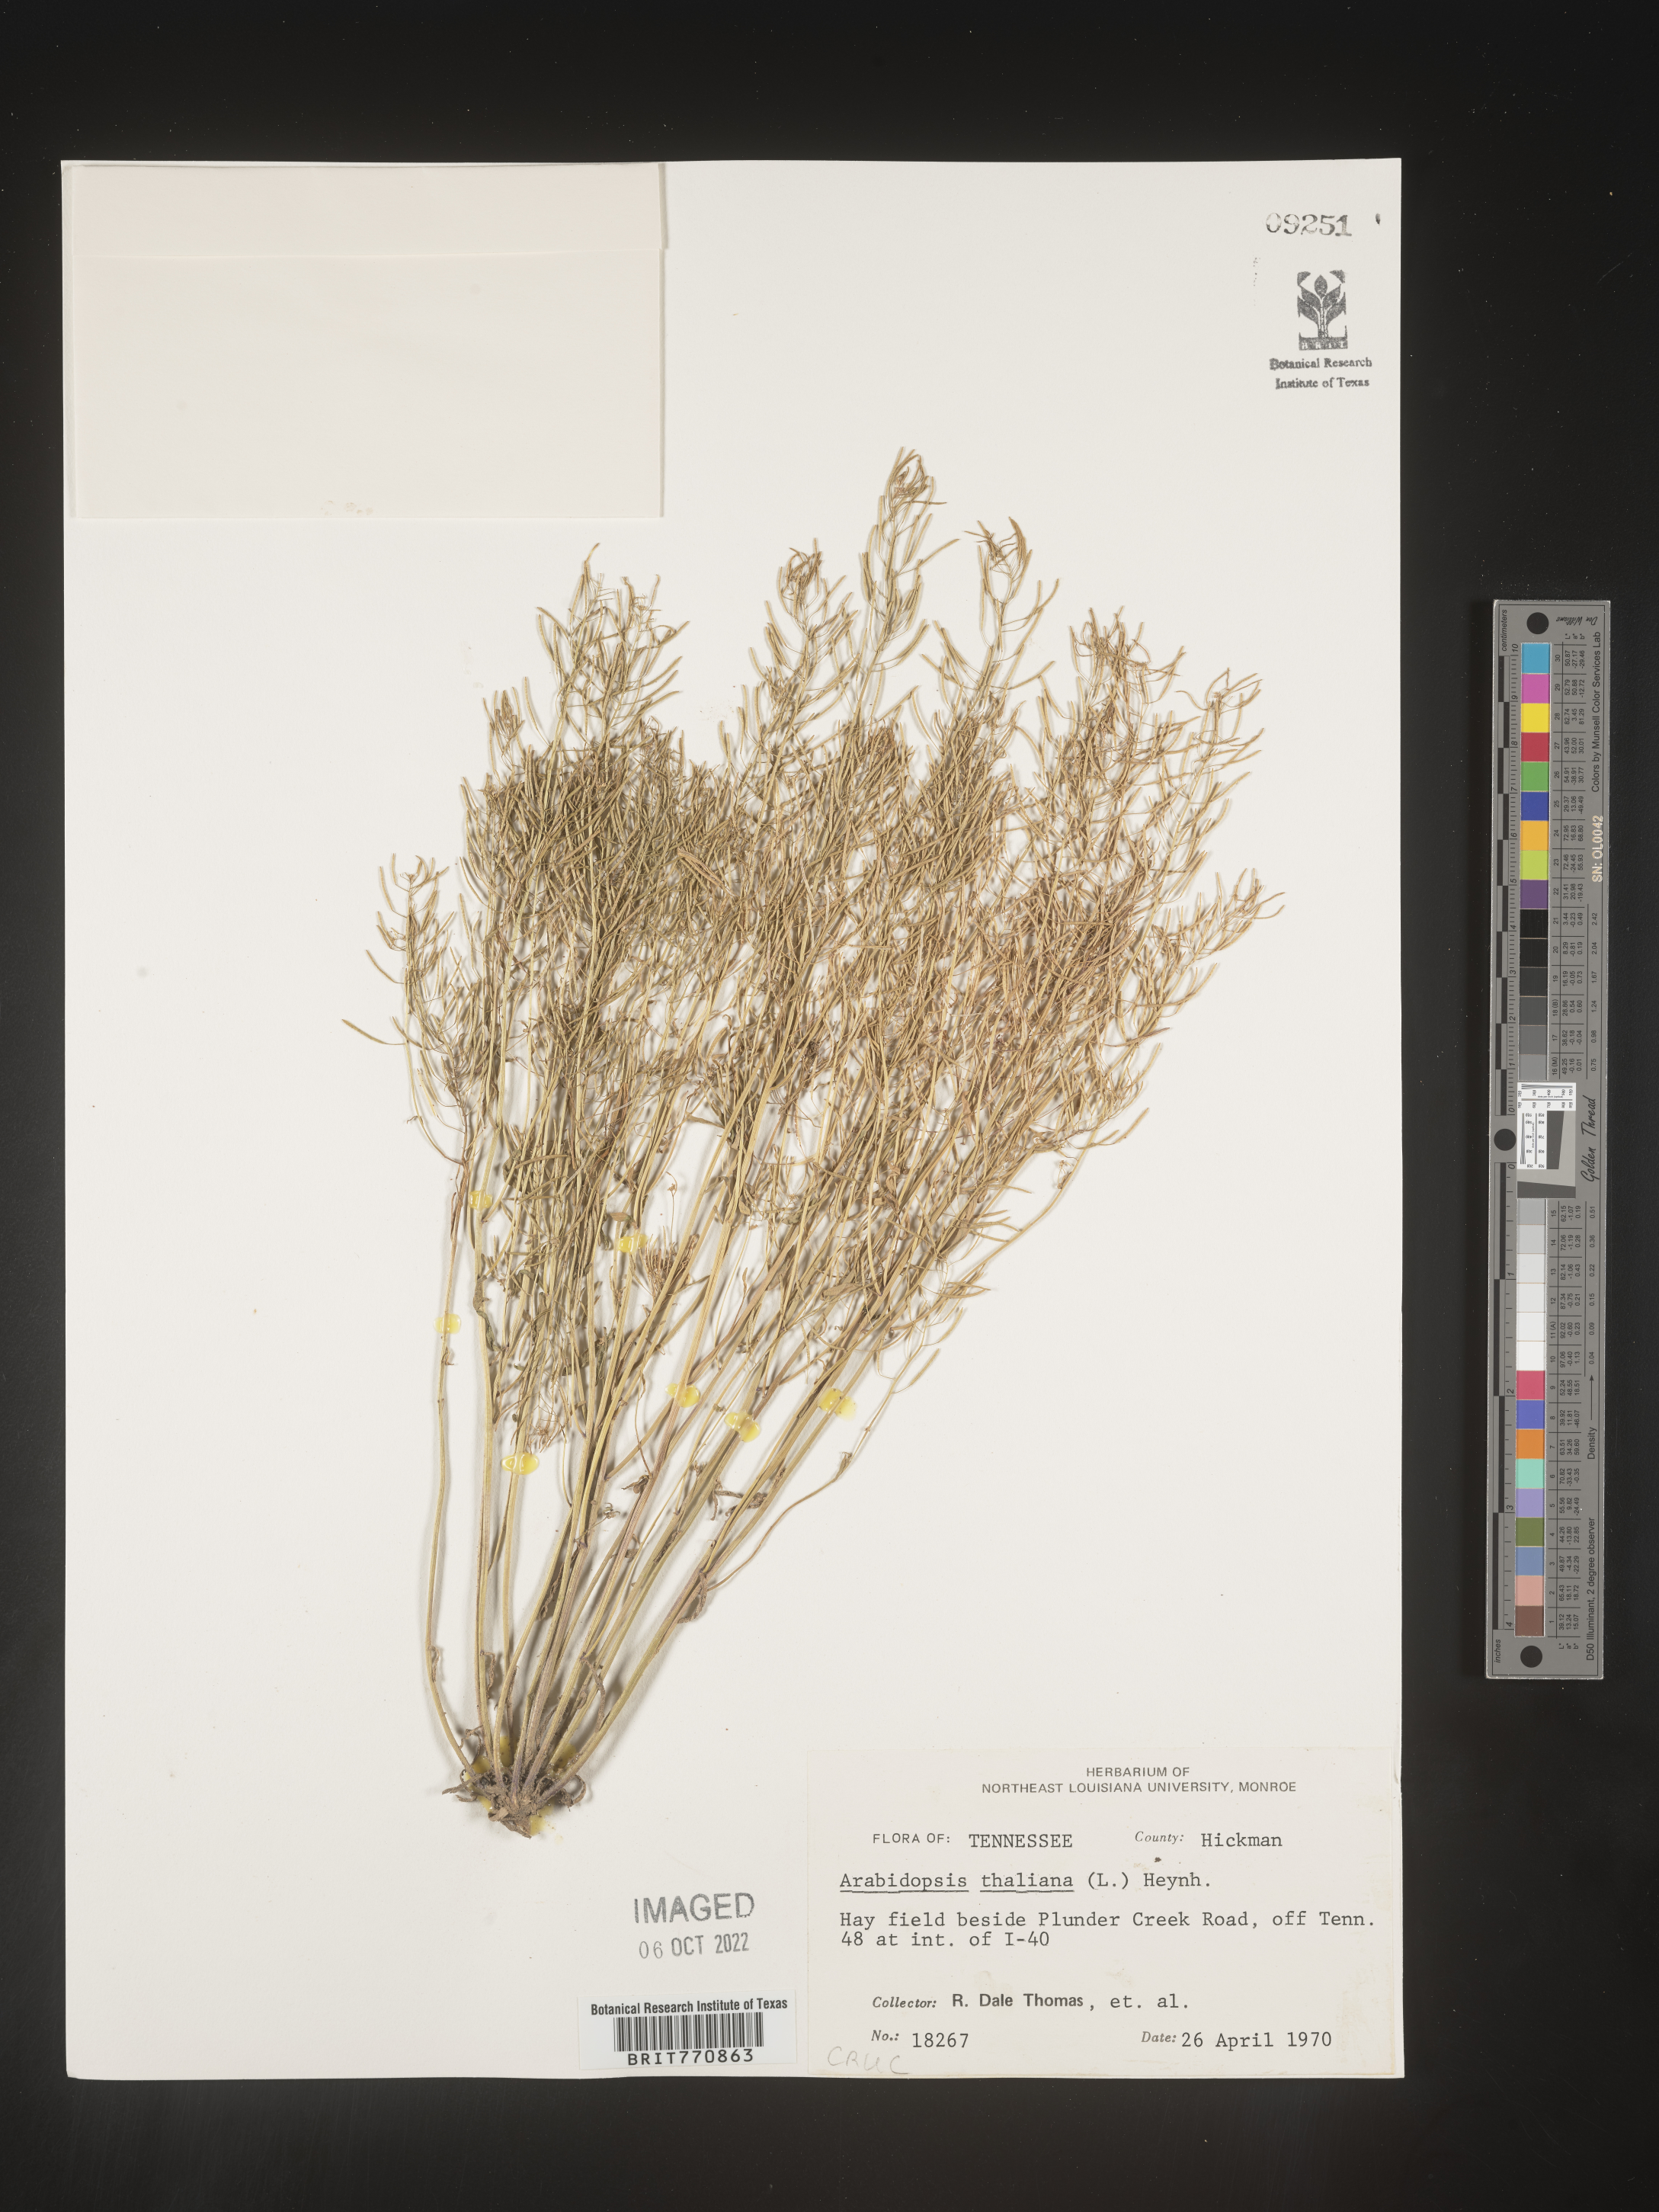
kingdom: Plantae
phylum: Tracheophyta
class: Magnoliopsida
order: Brassicales
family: Brassicaceae
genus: Arabidopsis
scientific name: Arabidopsis thaliana
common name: Thale cress
